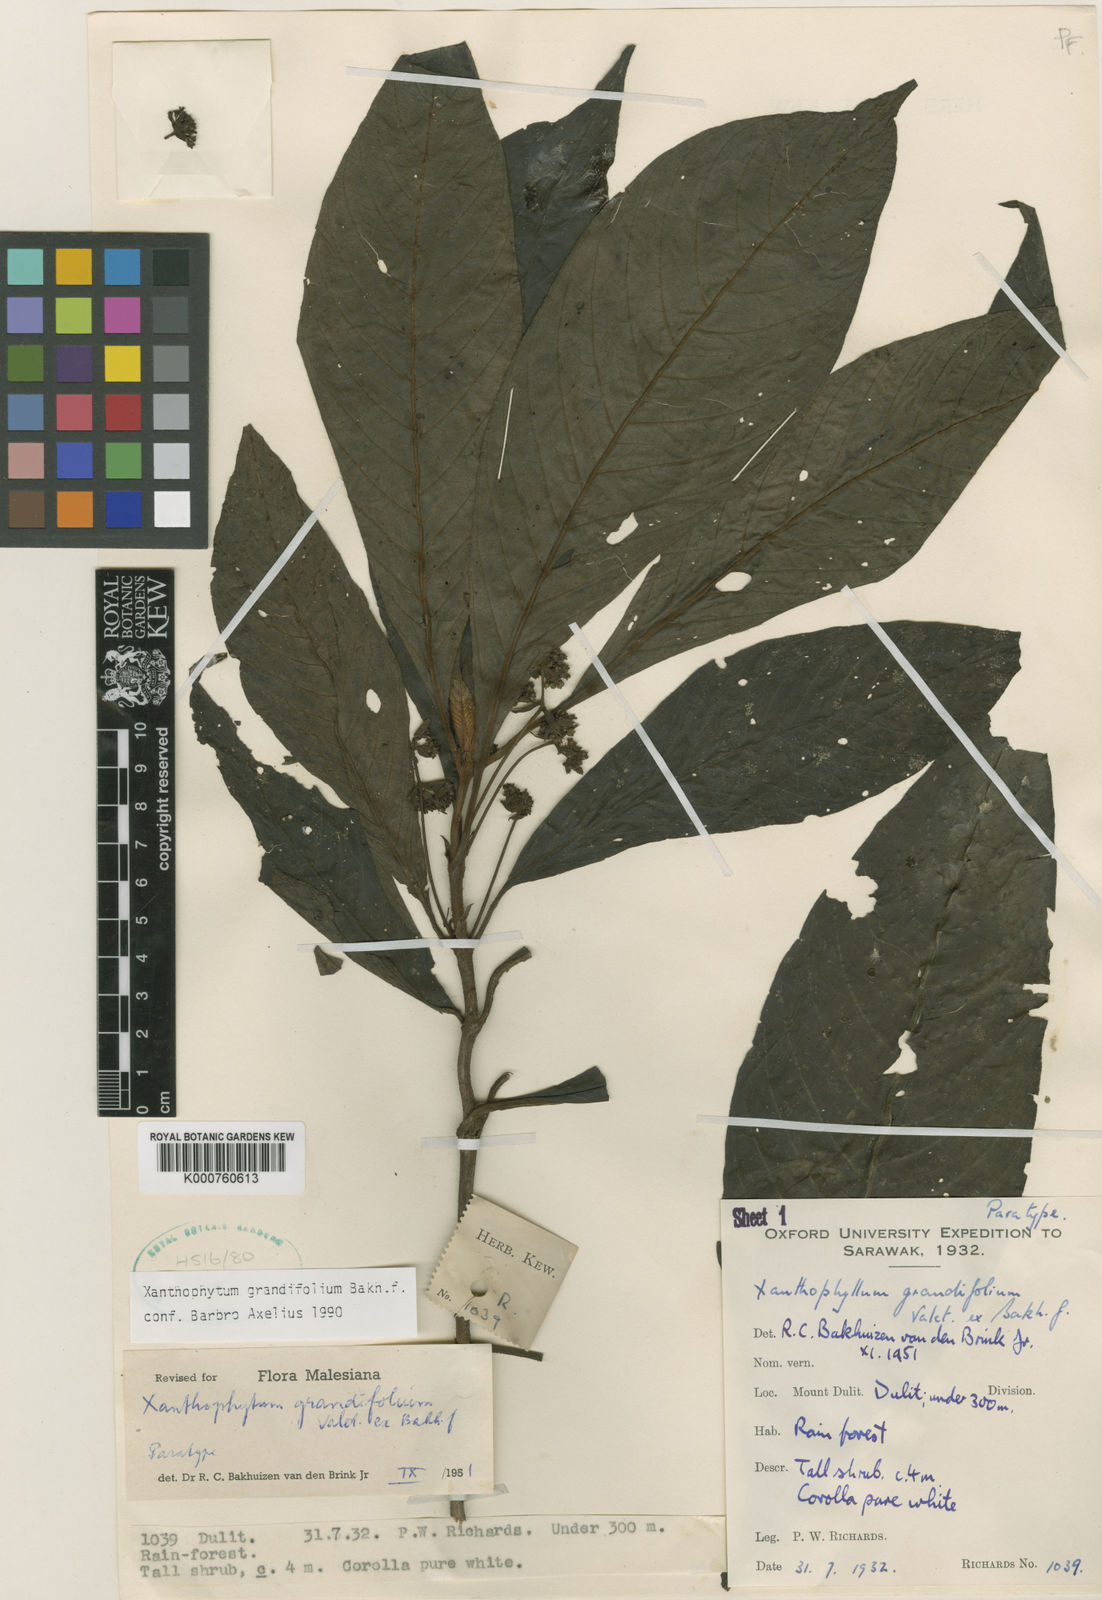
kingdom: Plantae
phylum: Tracheophyta
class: Magnoliopsida
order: Gentianales
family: Rubiaceae
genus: Xanthophytum
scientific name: Xanthophytum grandifolium
